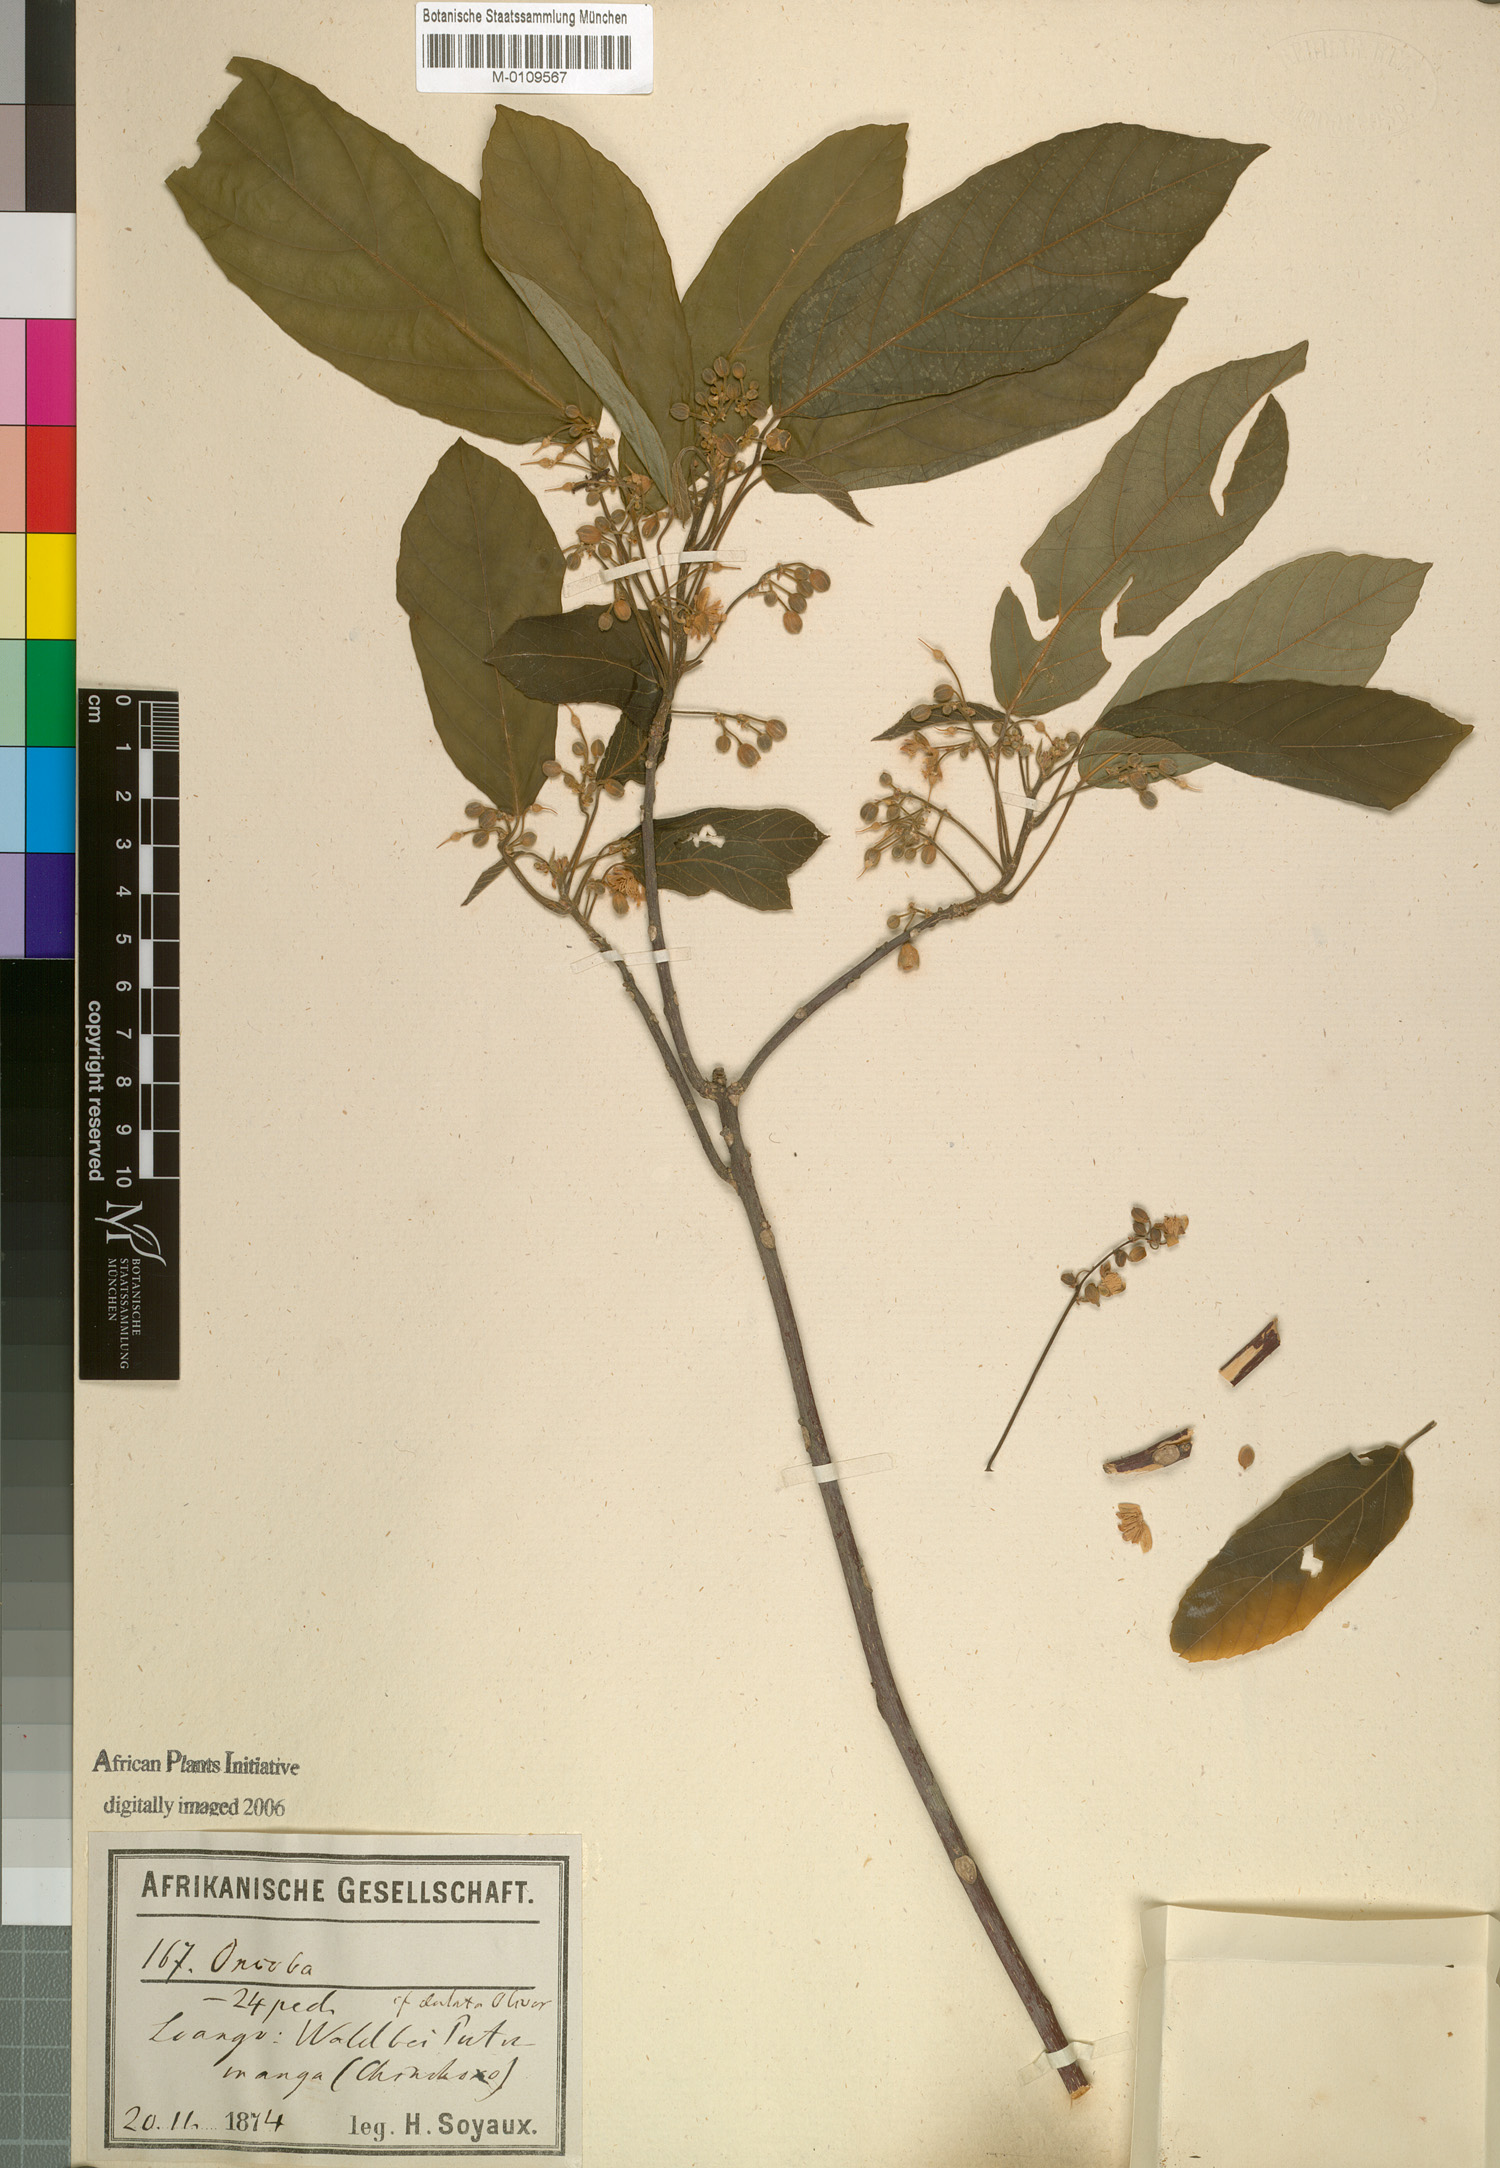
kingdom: Plantae
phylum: Tracheophyta
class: Magnoliopsida
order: Malpighiales
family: Achariaceae
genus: Lindackeria
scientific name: Lindackeria dentata
